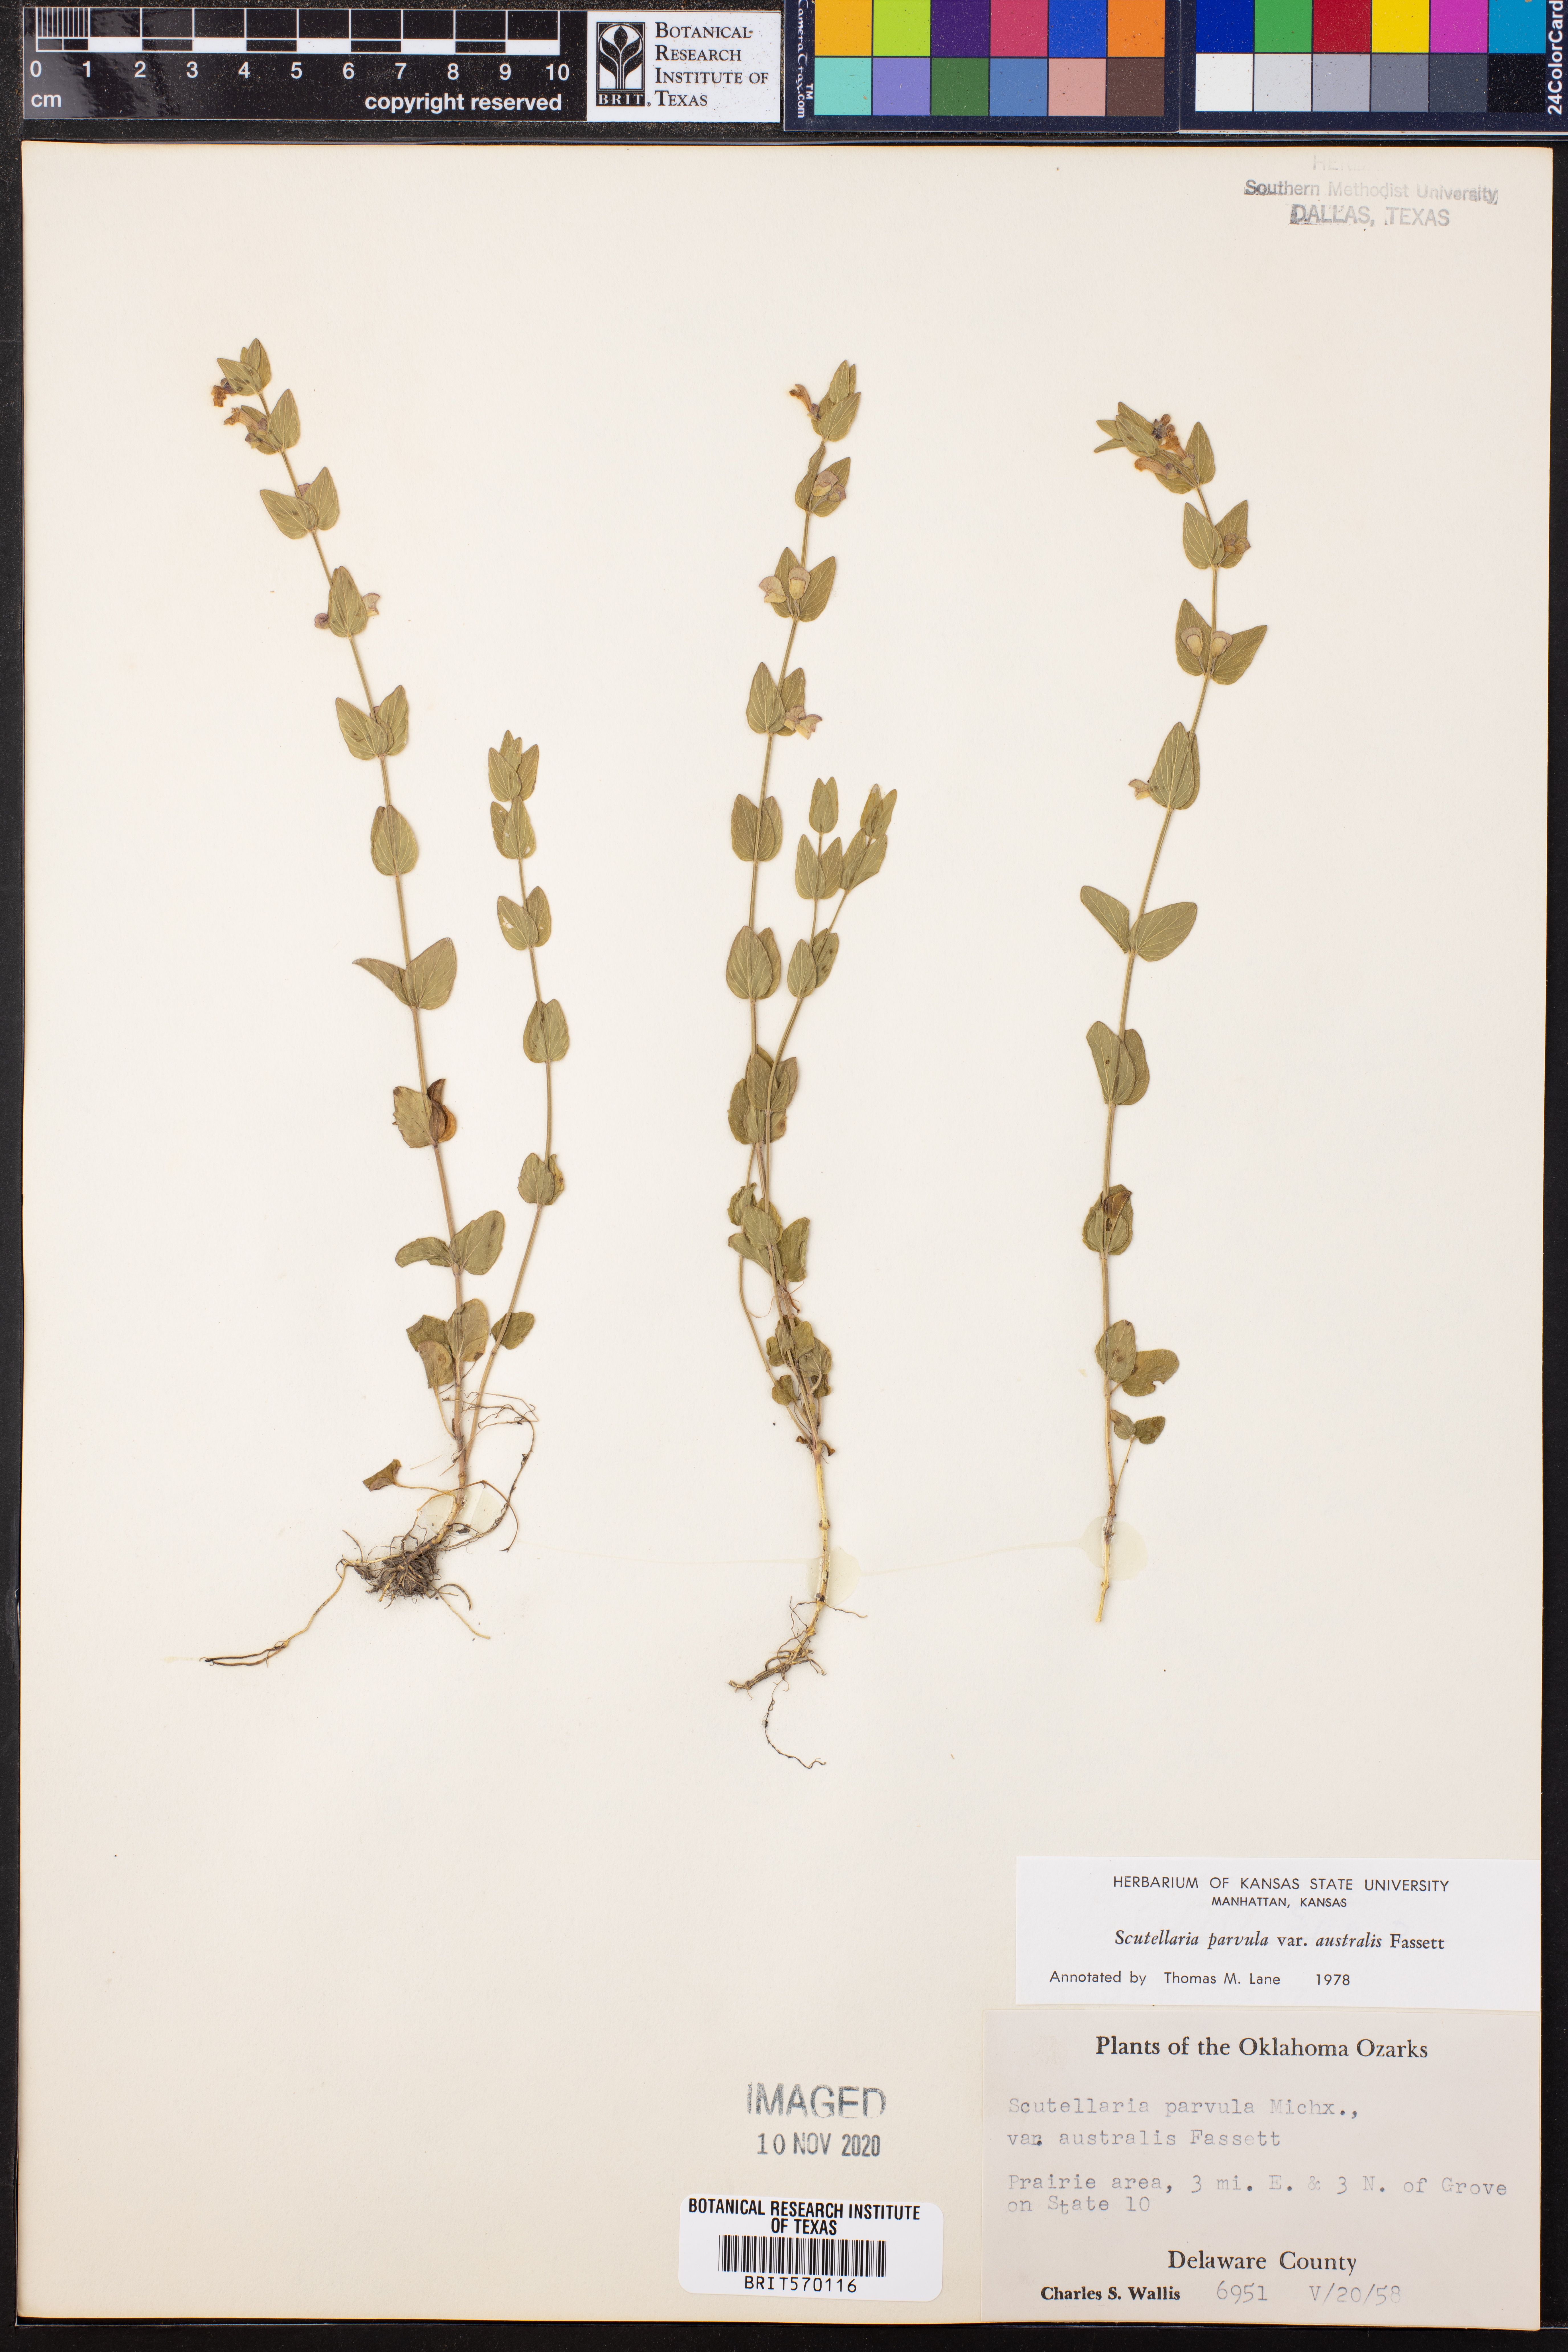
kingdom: Plantae
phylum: Tracheophyta
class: Magnoliopsida
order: Lamiales
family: Lamiaceae
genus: Scutellaria
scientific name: Scutellaria parvula
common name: Little scullcap
